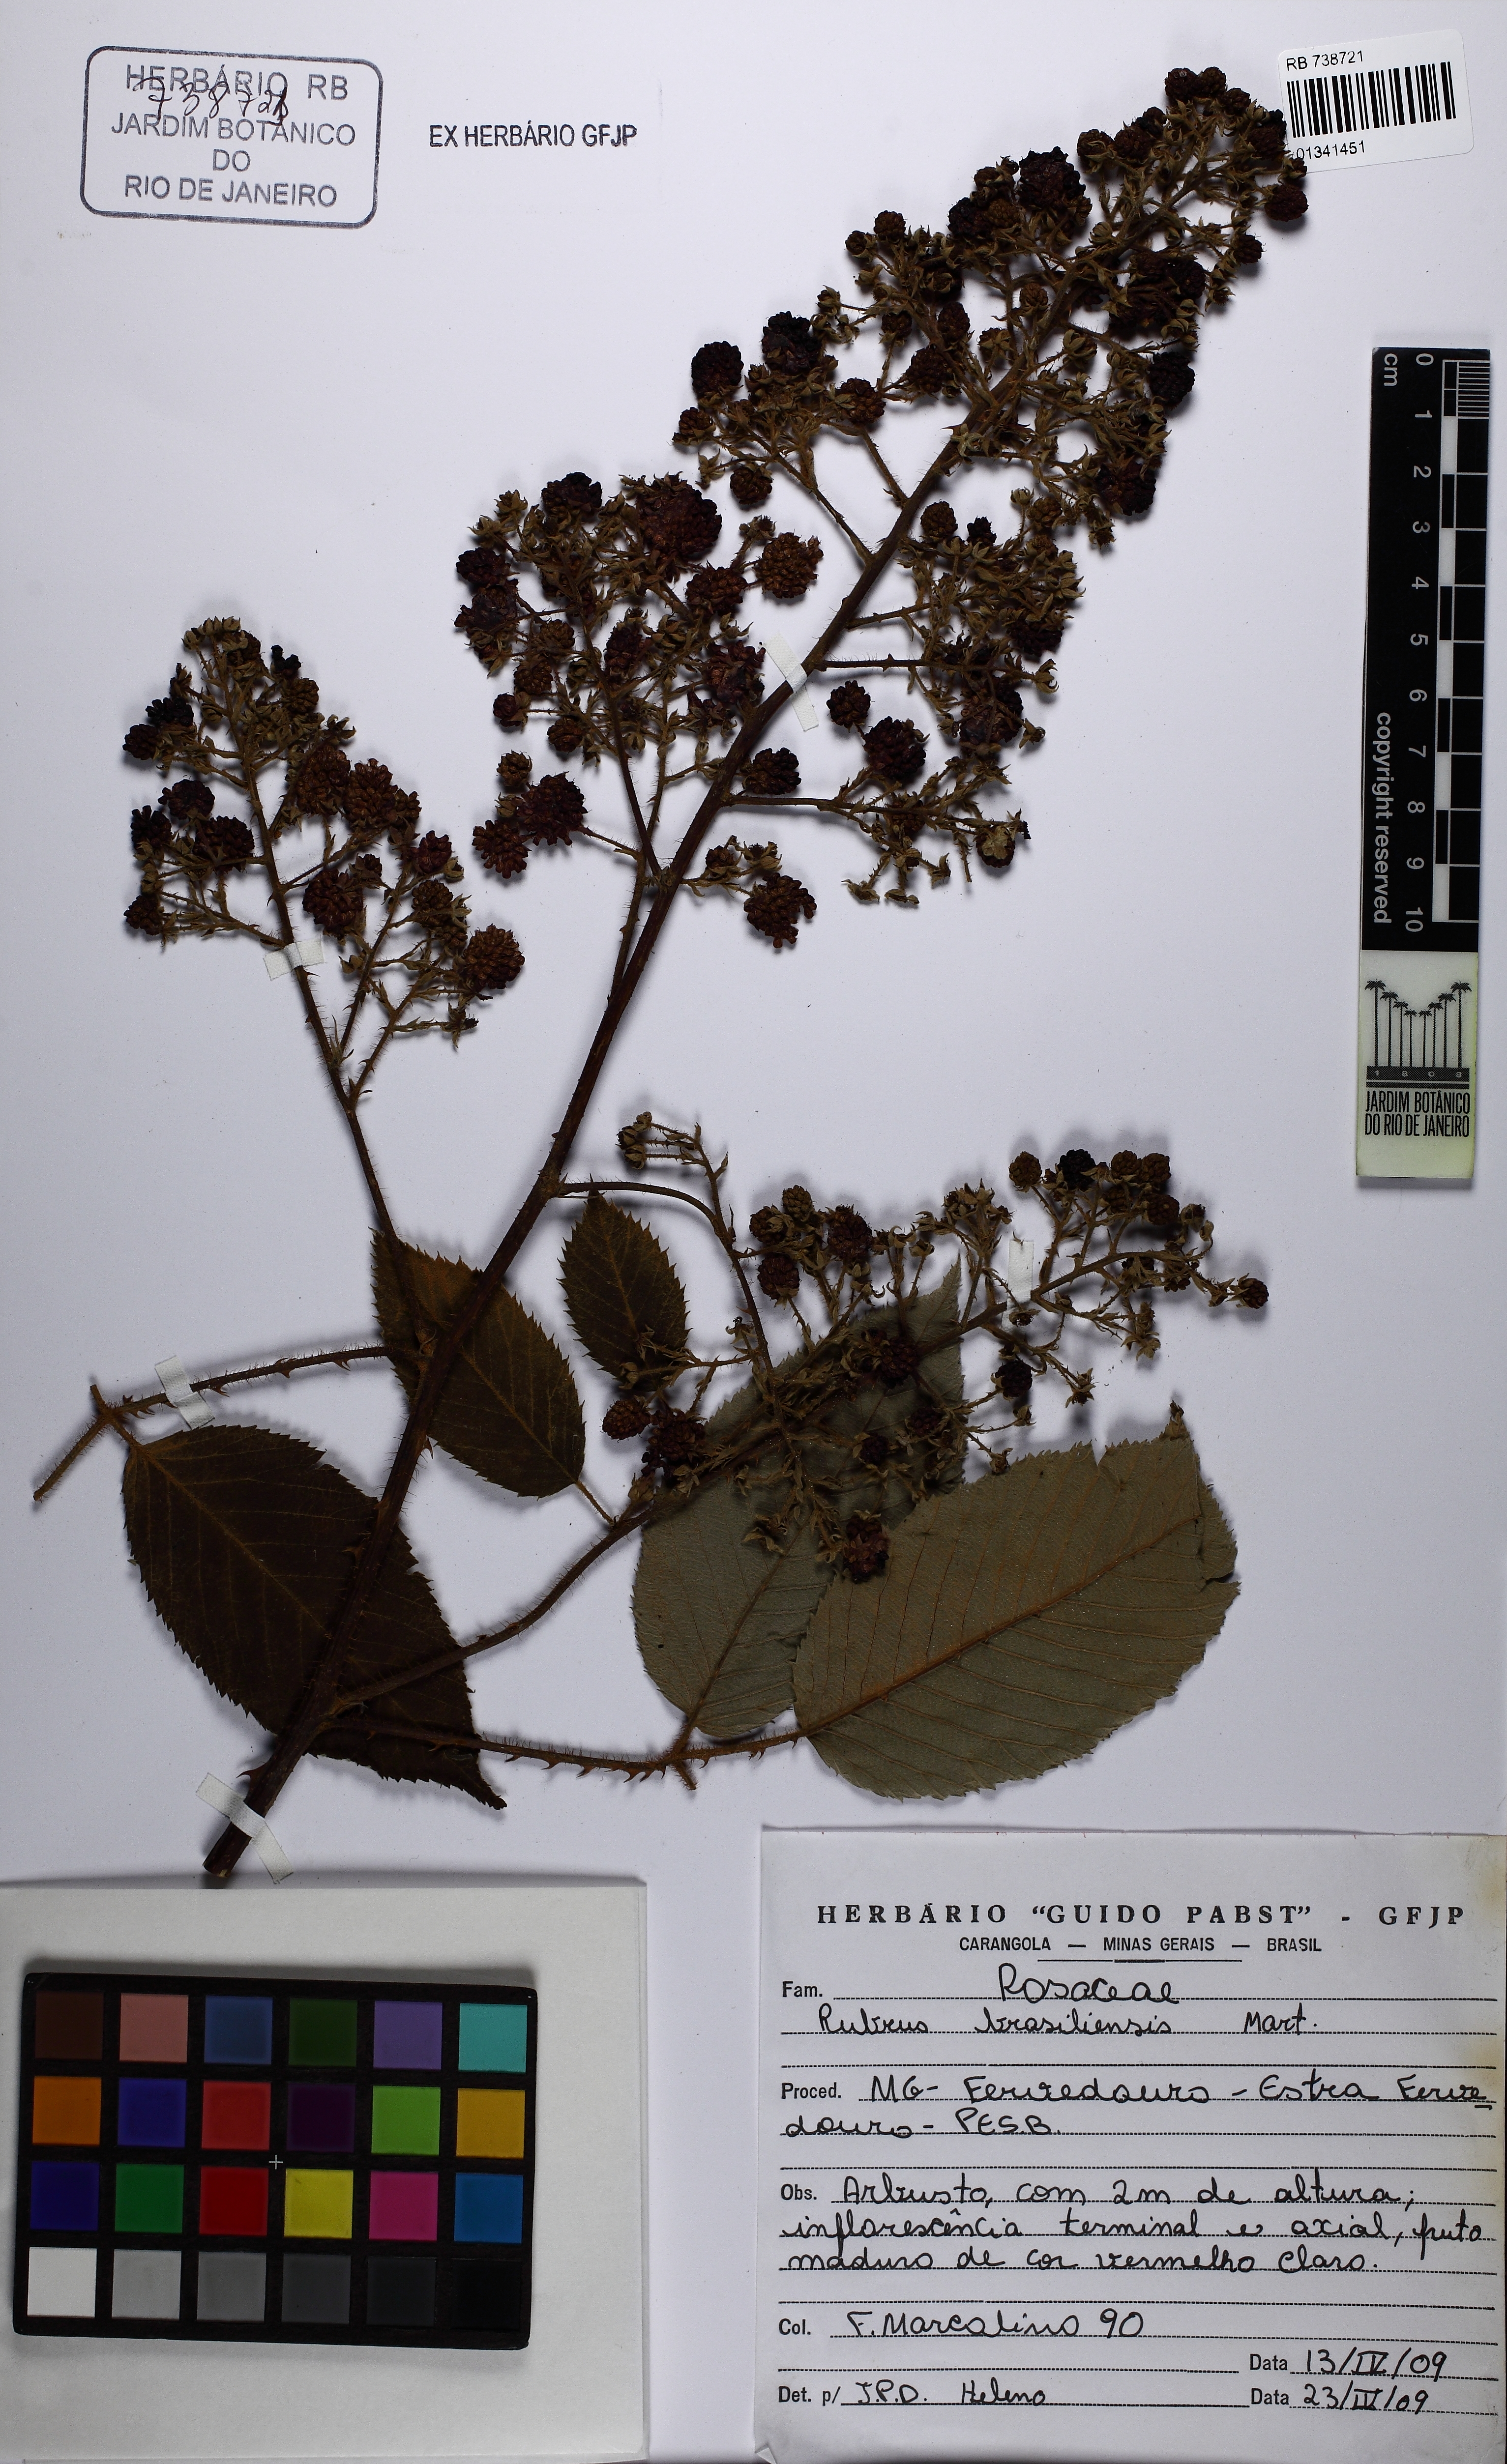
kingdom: Plantae
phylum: Tracheophyta
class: Magnoliopsida
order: Rosales
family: Rosaceae
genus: Rubus
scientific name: Rubus brasiliensis
